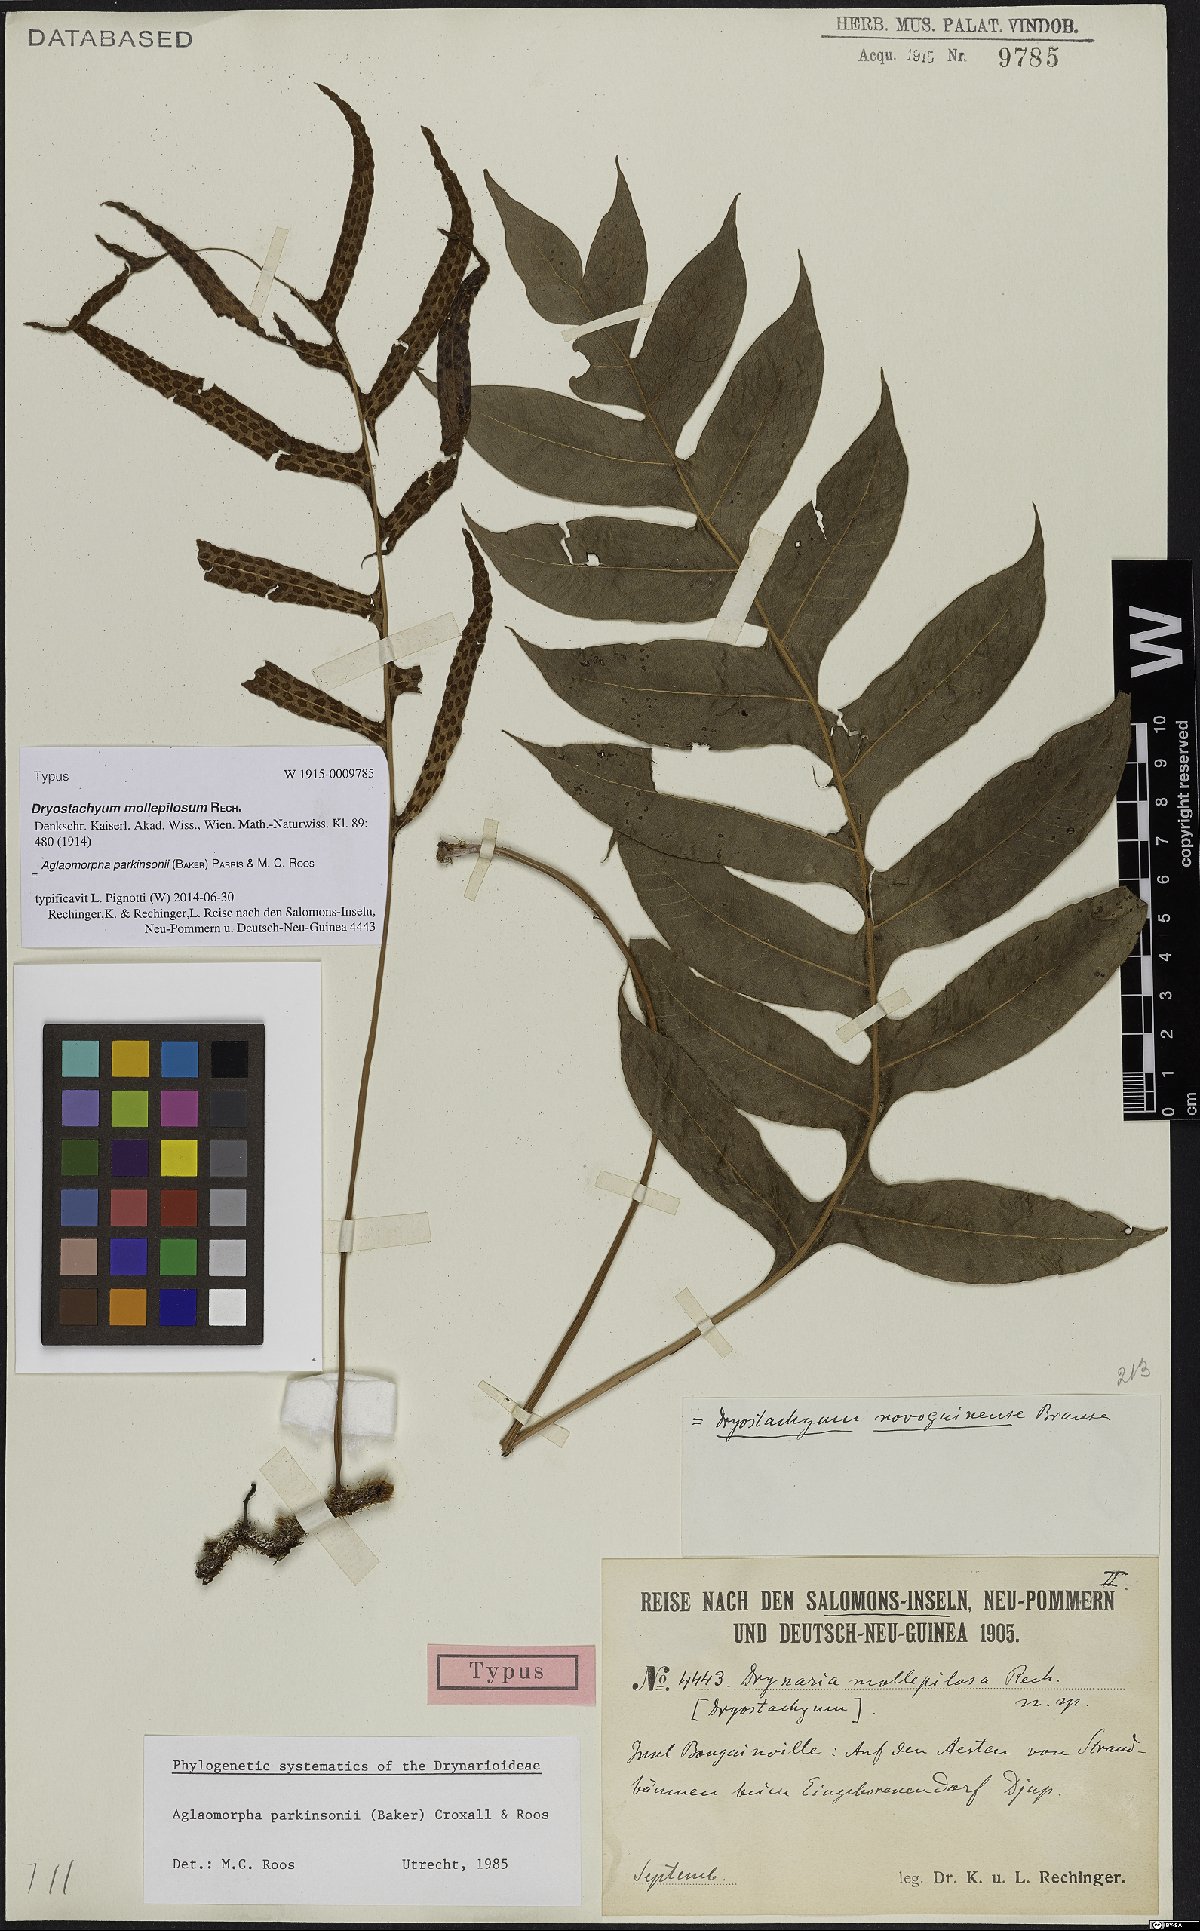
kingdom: Plantae
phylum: Tracheophyta
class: Polypodiopsida
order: Polypodiales
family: Polypodiaceae
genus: Drynaria
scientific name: Drynaria parkinsonii
